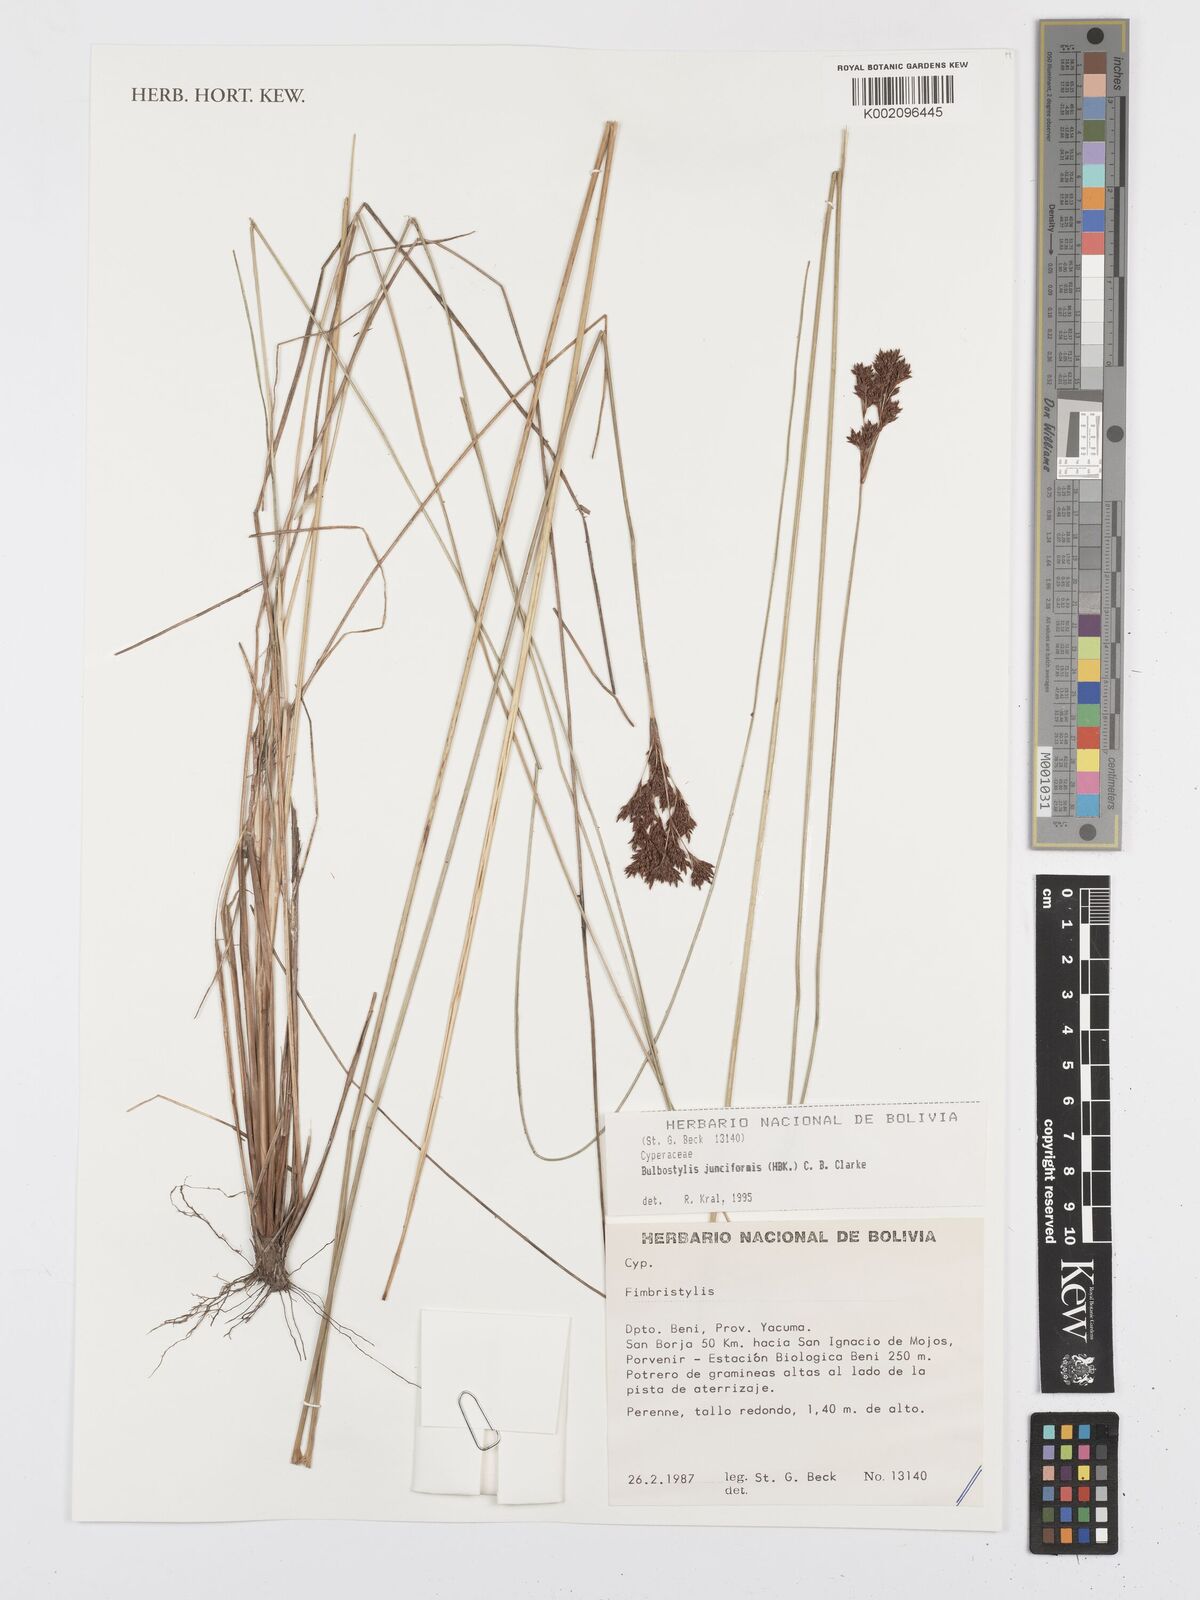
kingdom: Plantae
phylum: Tracheophyta
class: Liliopsida
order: Poales
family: Cyperaceae
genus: Bulbostylis
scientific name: Bulbostylis junciformis
